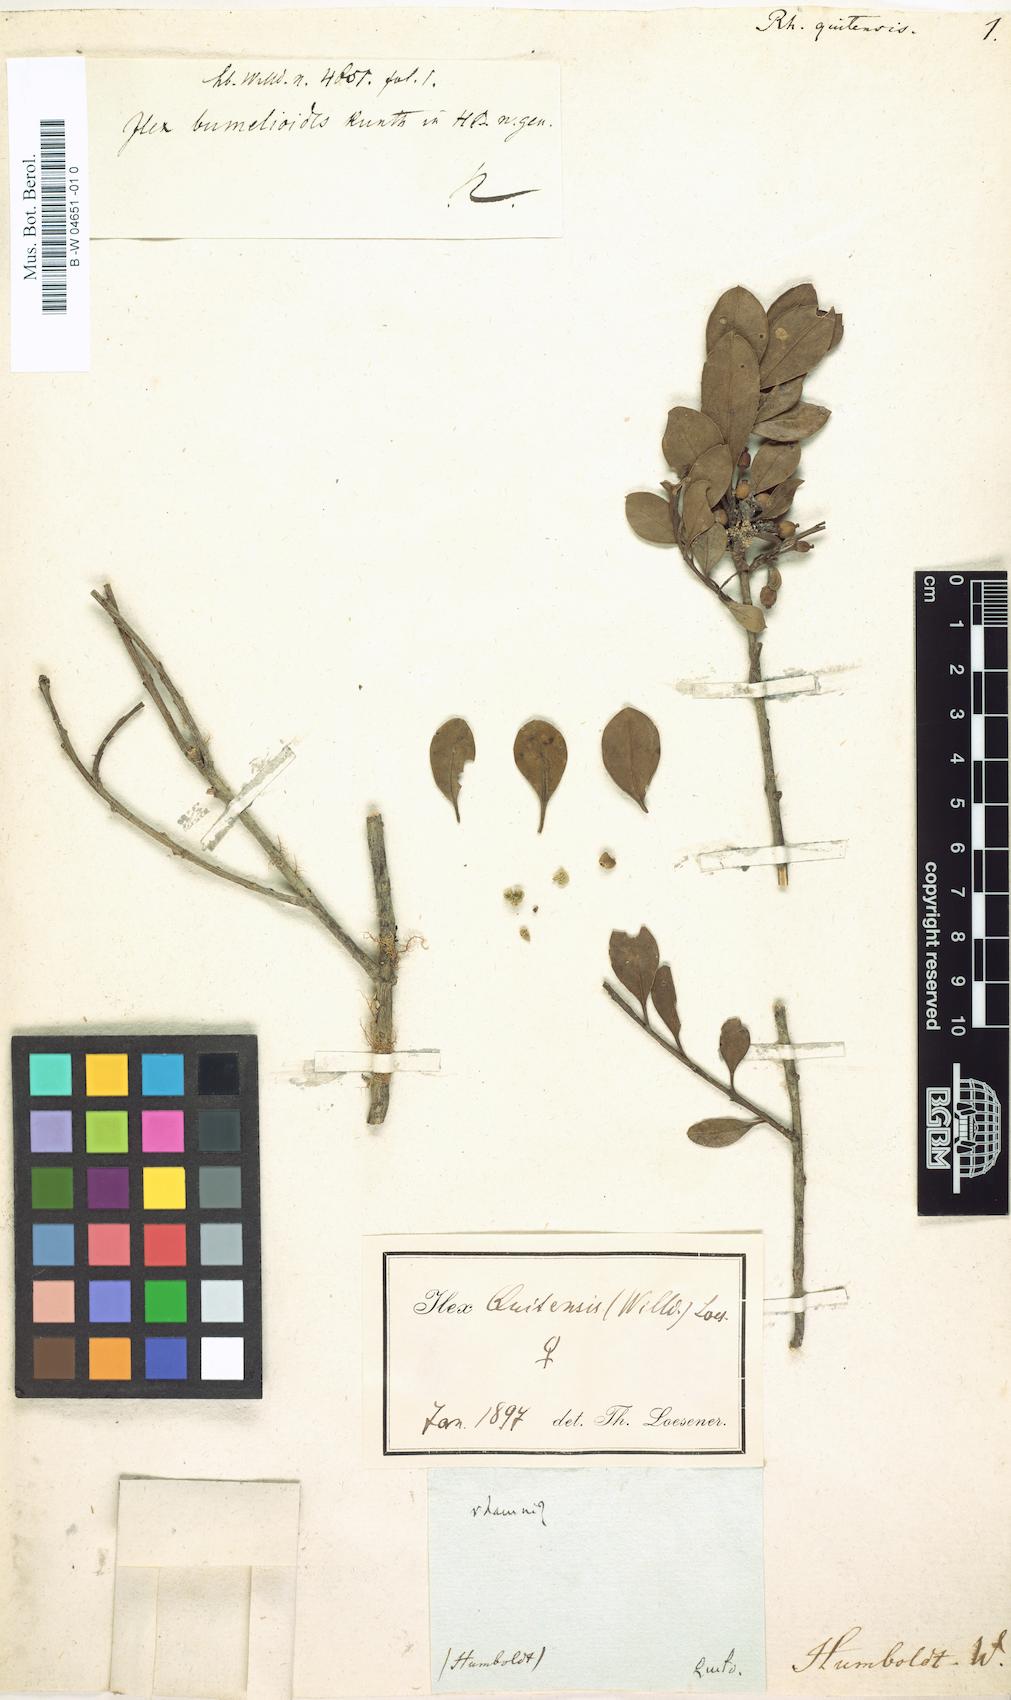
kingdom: Plantae
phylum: Tracheophyta
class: Magnoliopsida
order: Aquifoliales
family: Aquifoliaceae
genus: Ilex
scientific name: Ilex quitensis
